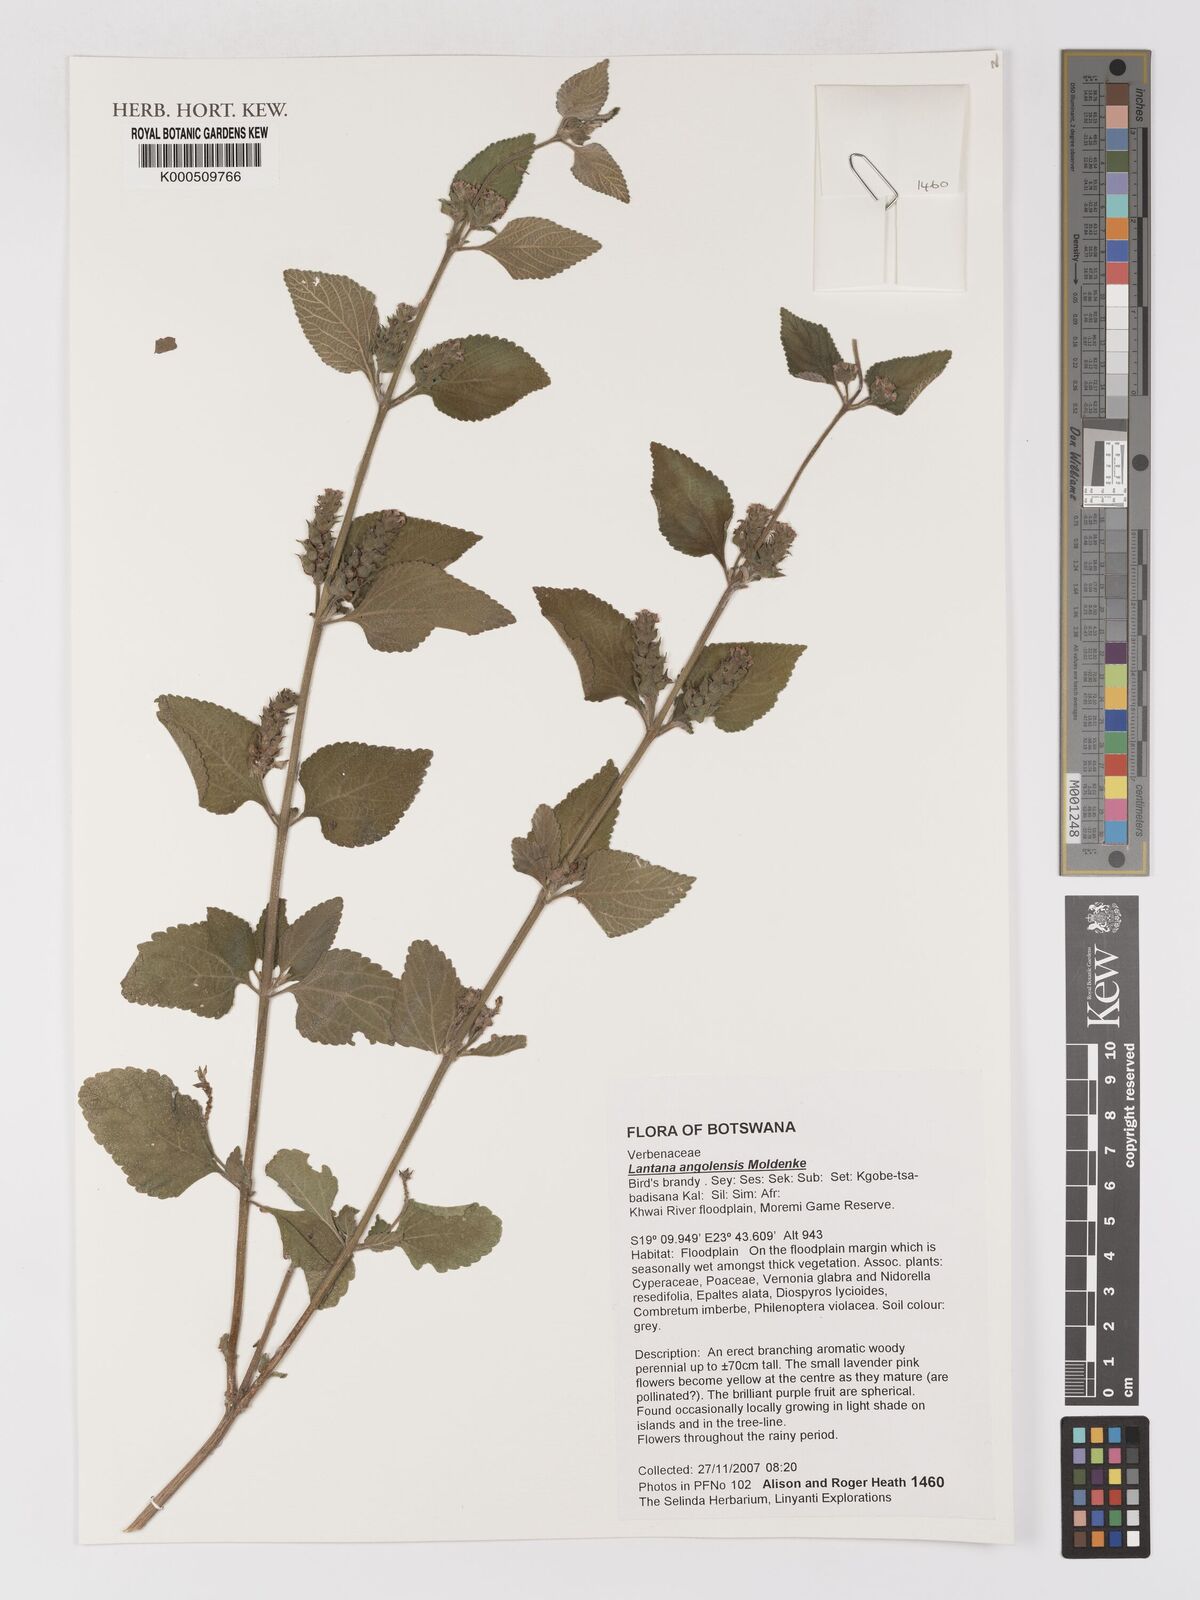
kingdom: Plantae
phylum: Tracheophyta
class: Magnoliopsida
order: Lamiales
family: Verbenaceae
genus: Lantana
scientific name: Lantana angolensis
